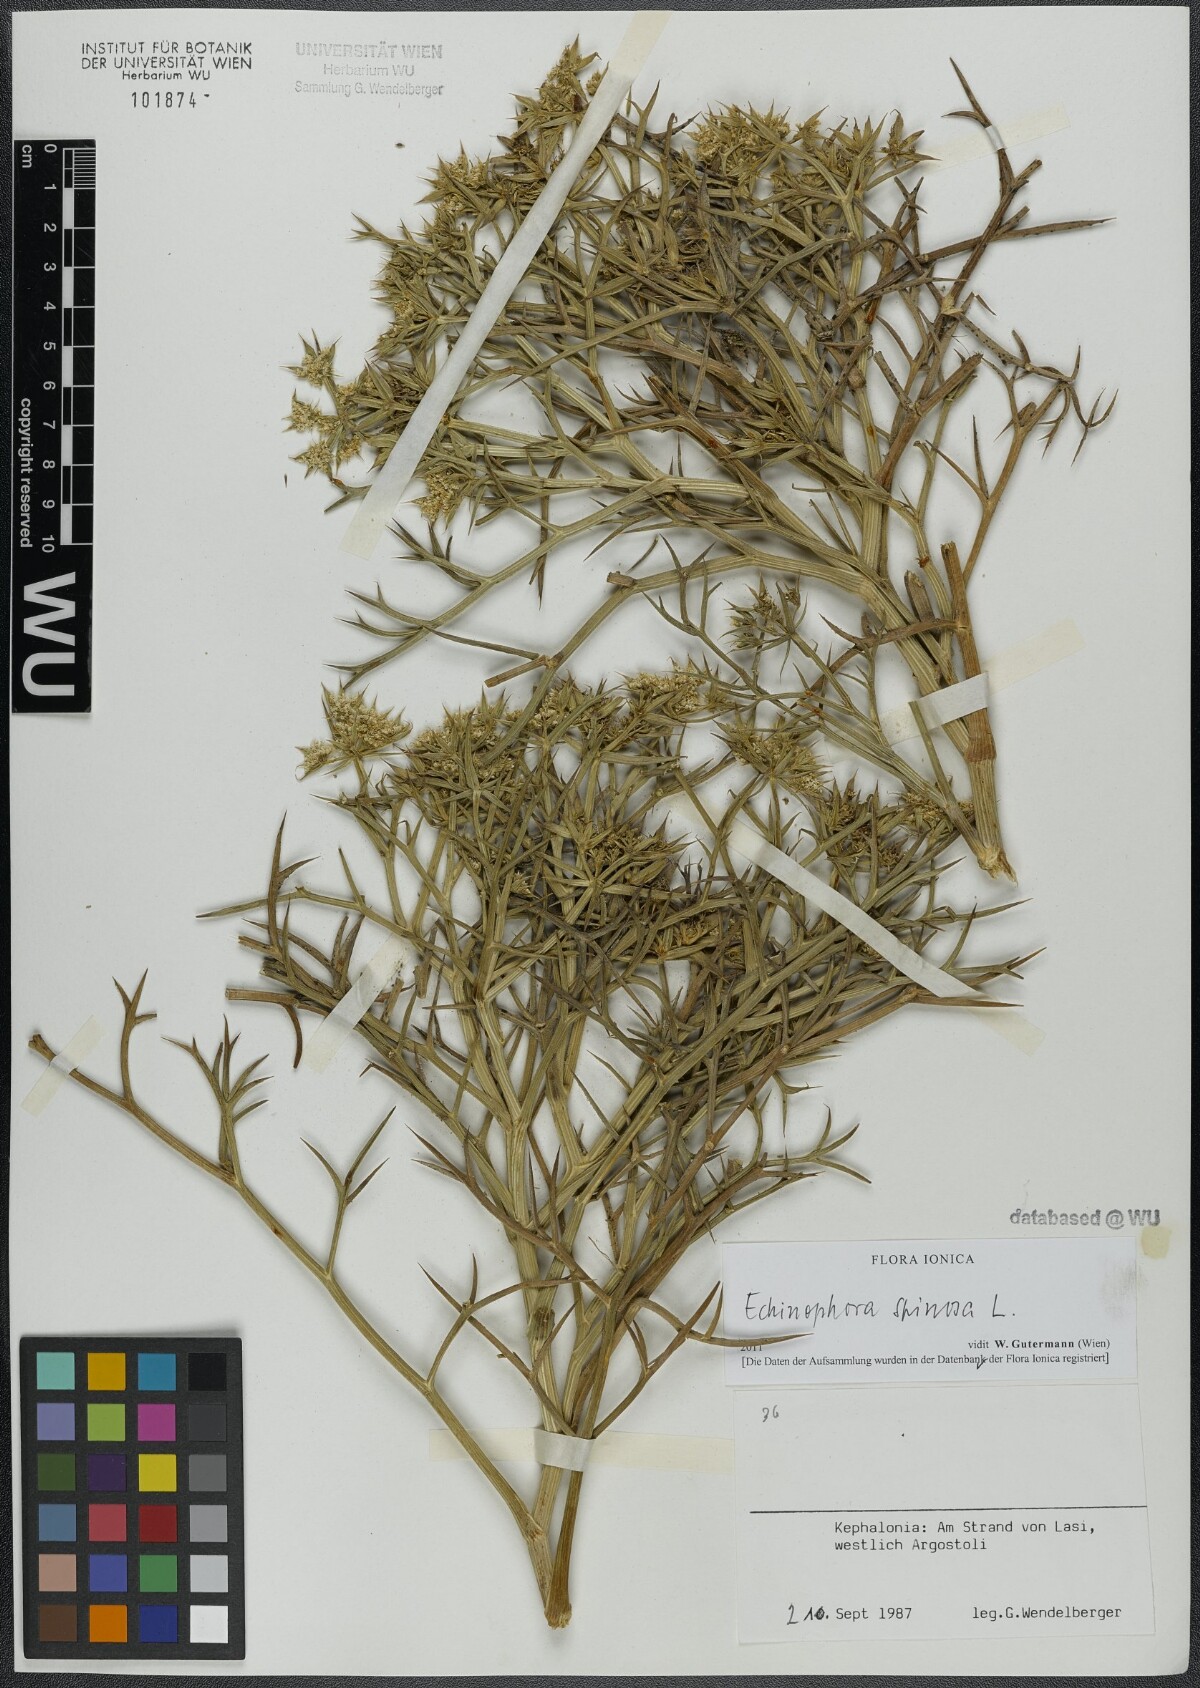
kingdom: Plantae
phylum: Tracheophyta
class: Magnoliopsida
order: Apiales
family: Apiaceae
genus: Echinophora
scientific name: Echinophora spinosa
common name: Prickly samphire
